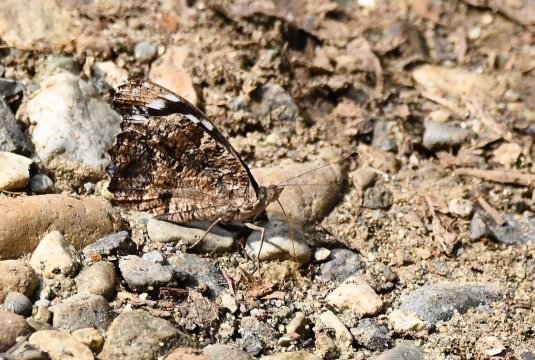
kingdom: Animalia
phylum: Arthropoda
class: Insecta
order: Lepidoptera
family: Nymphalidae
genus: Myscelia
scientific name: Myscelia ethusa
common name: Mexican Bluewing
